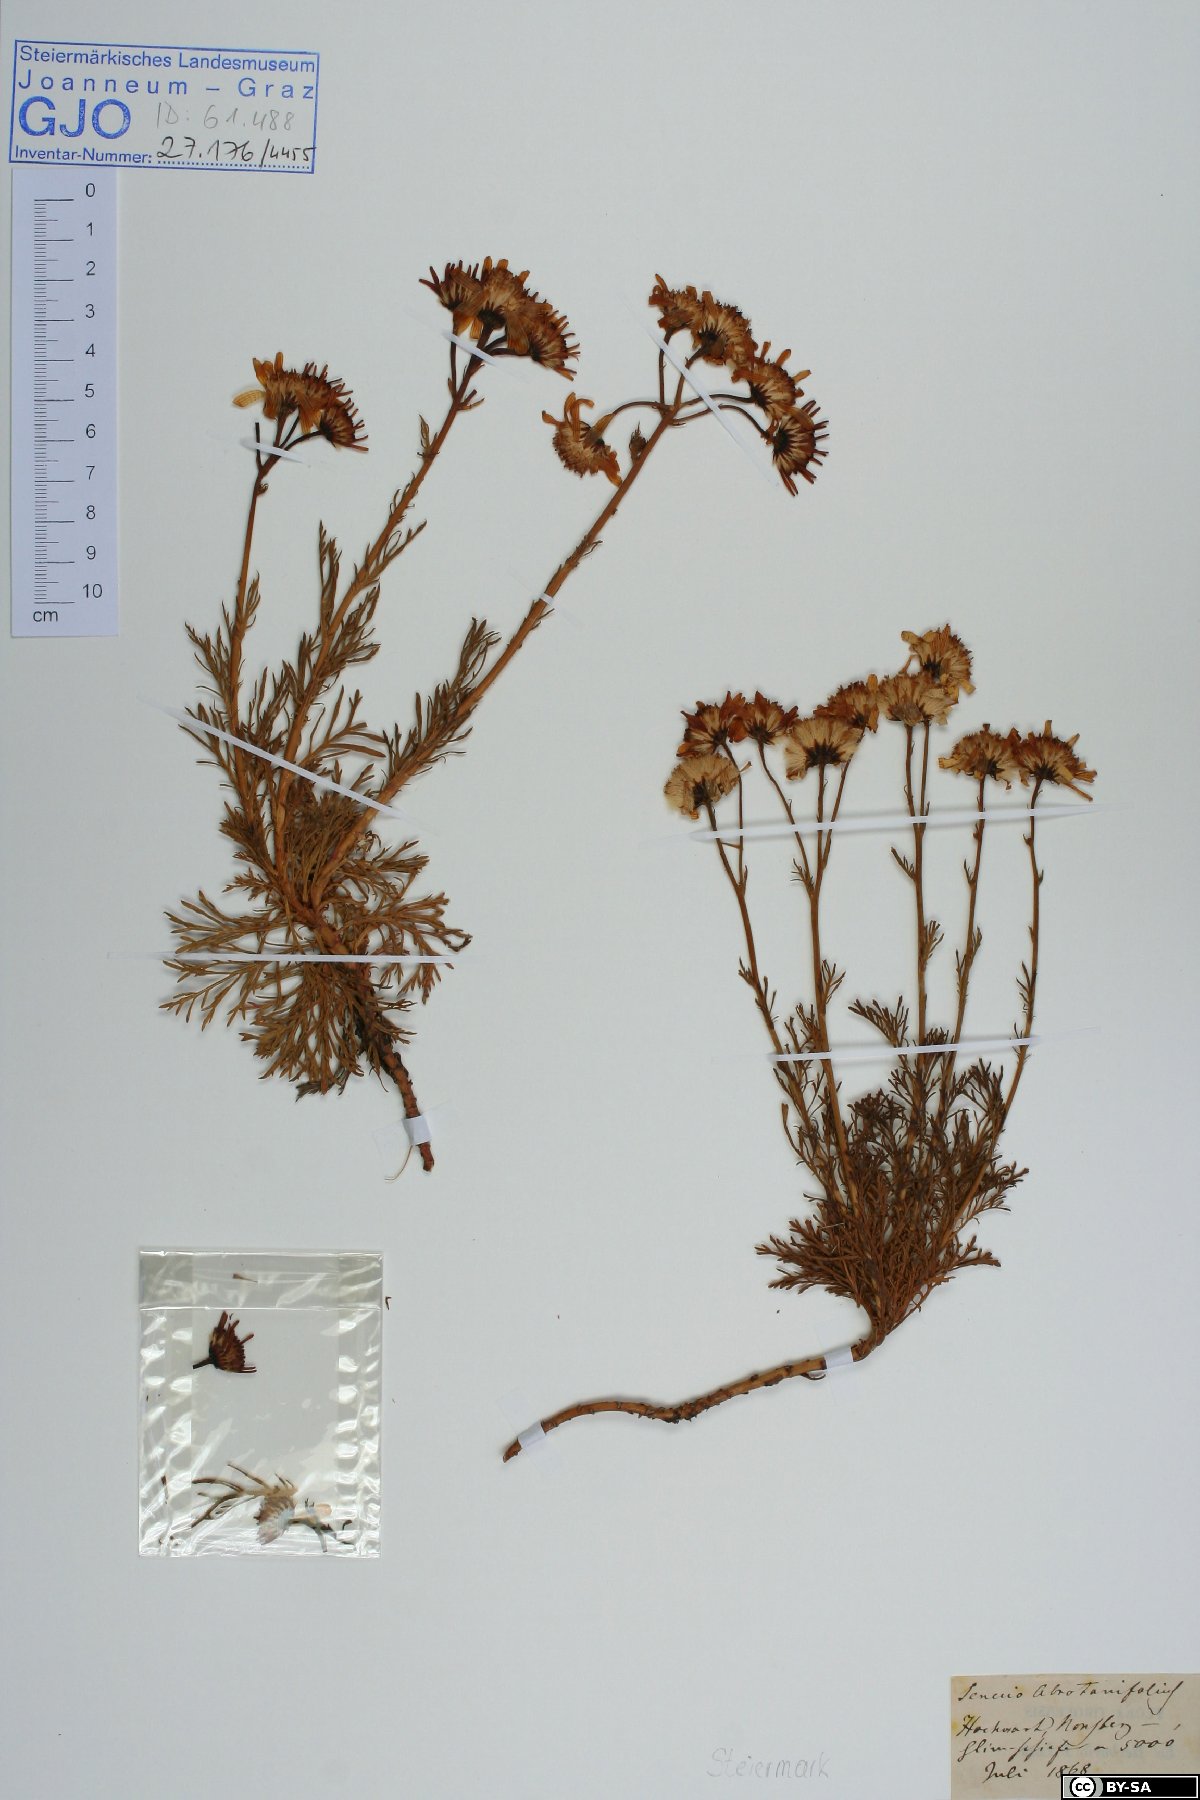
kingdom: Plantae
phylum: Tracheophyta
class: Magnoliopsida
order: Asterales
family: Asteraceae
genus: Jacobaea
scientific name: Jacobaea abrotanifolia
